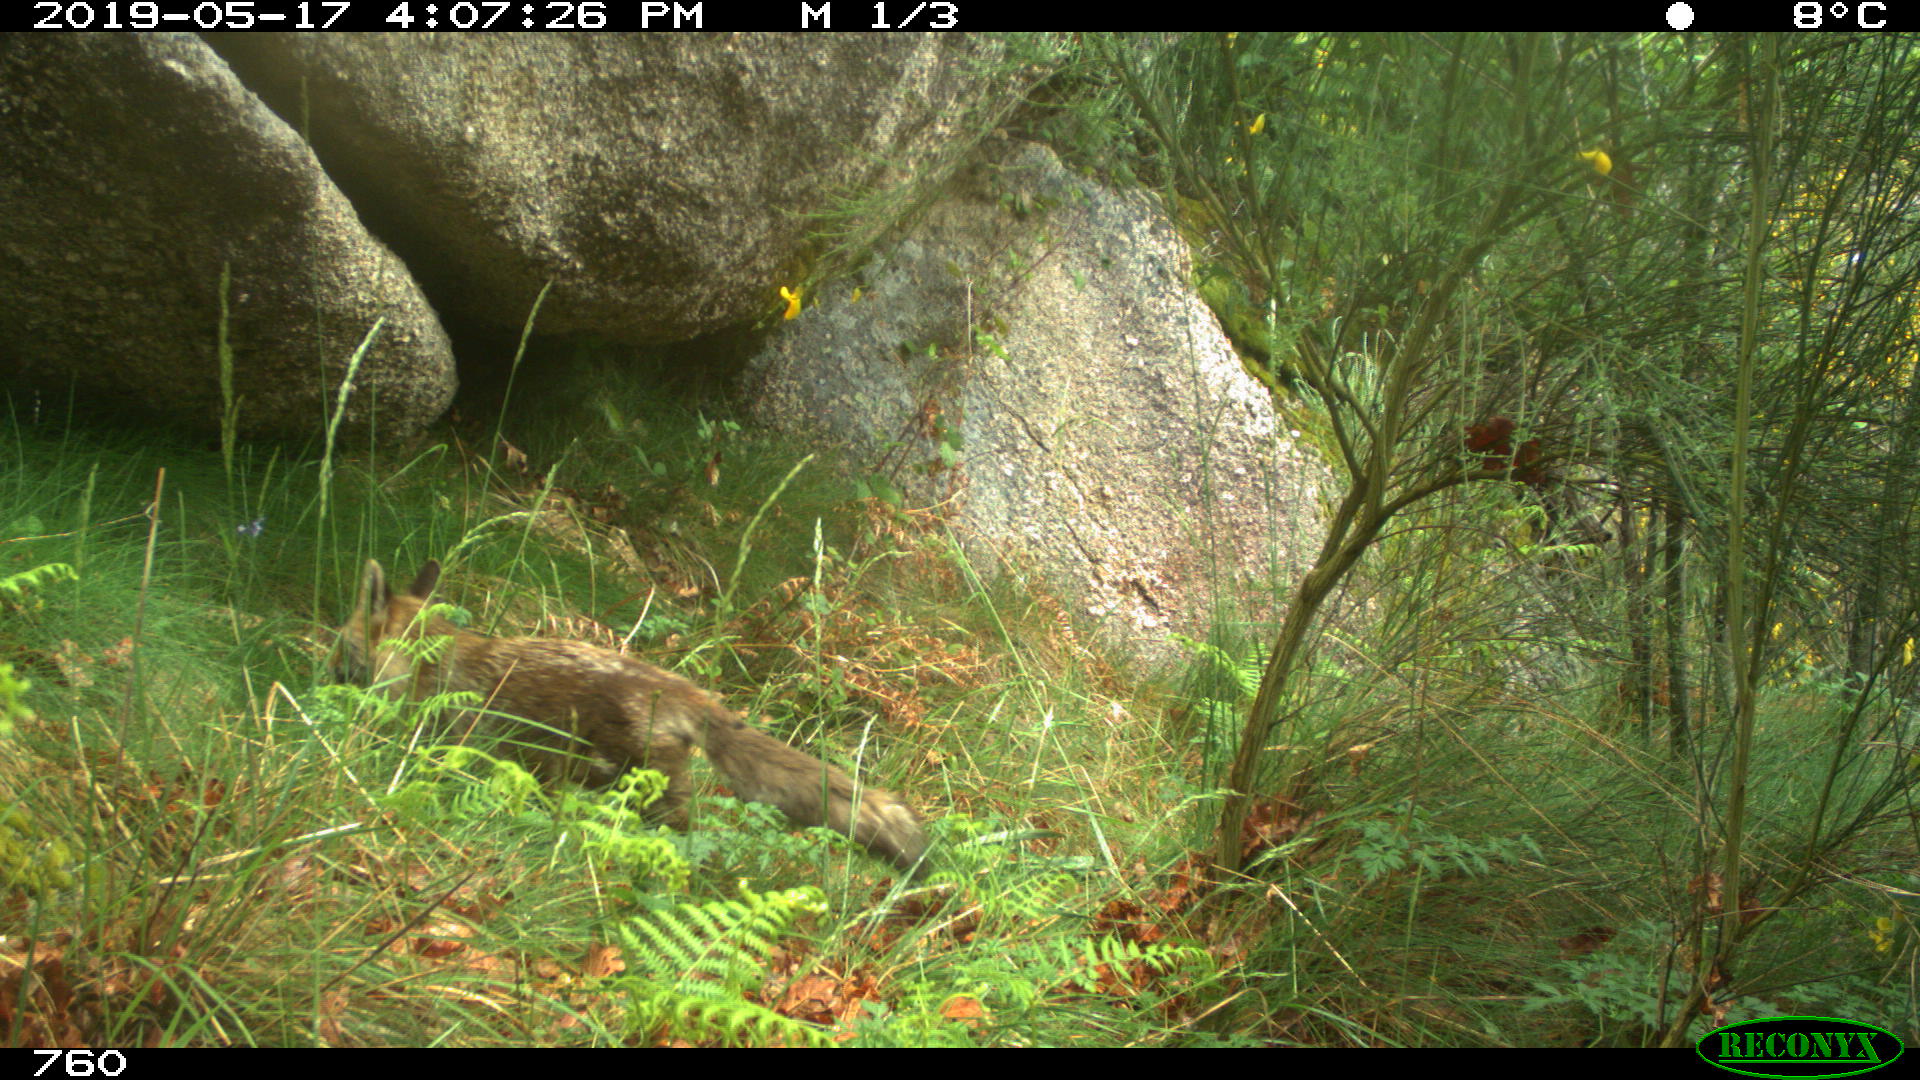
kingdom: Animalia
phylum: Chordata
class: Mammalia
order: Carnivora
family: Canidae
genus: Vulpes
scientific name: Vulpes vulpes
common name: Red fox
